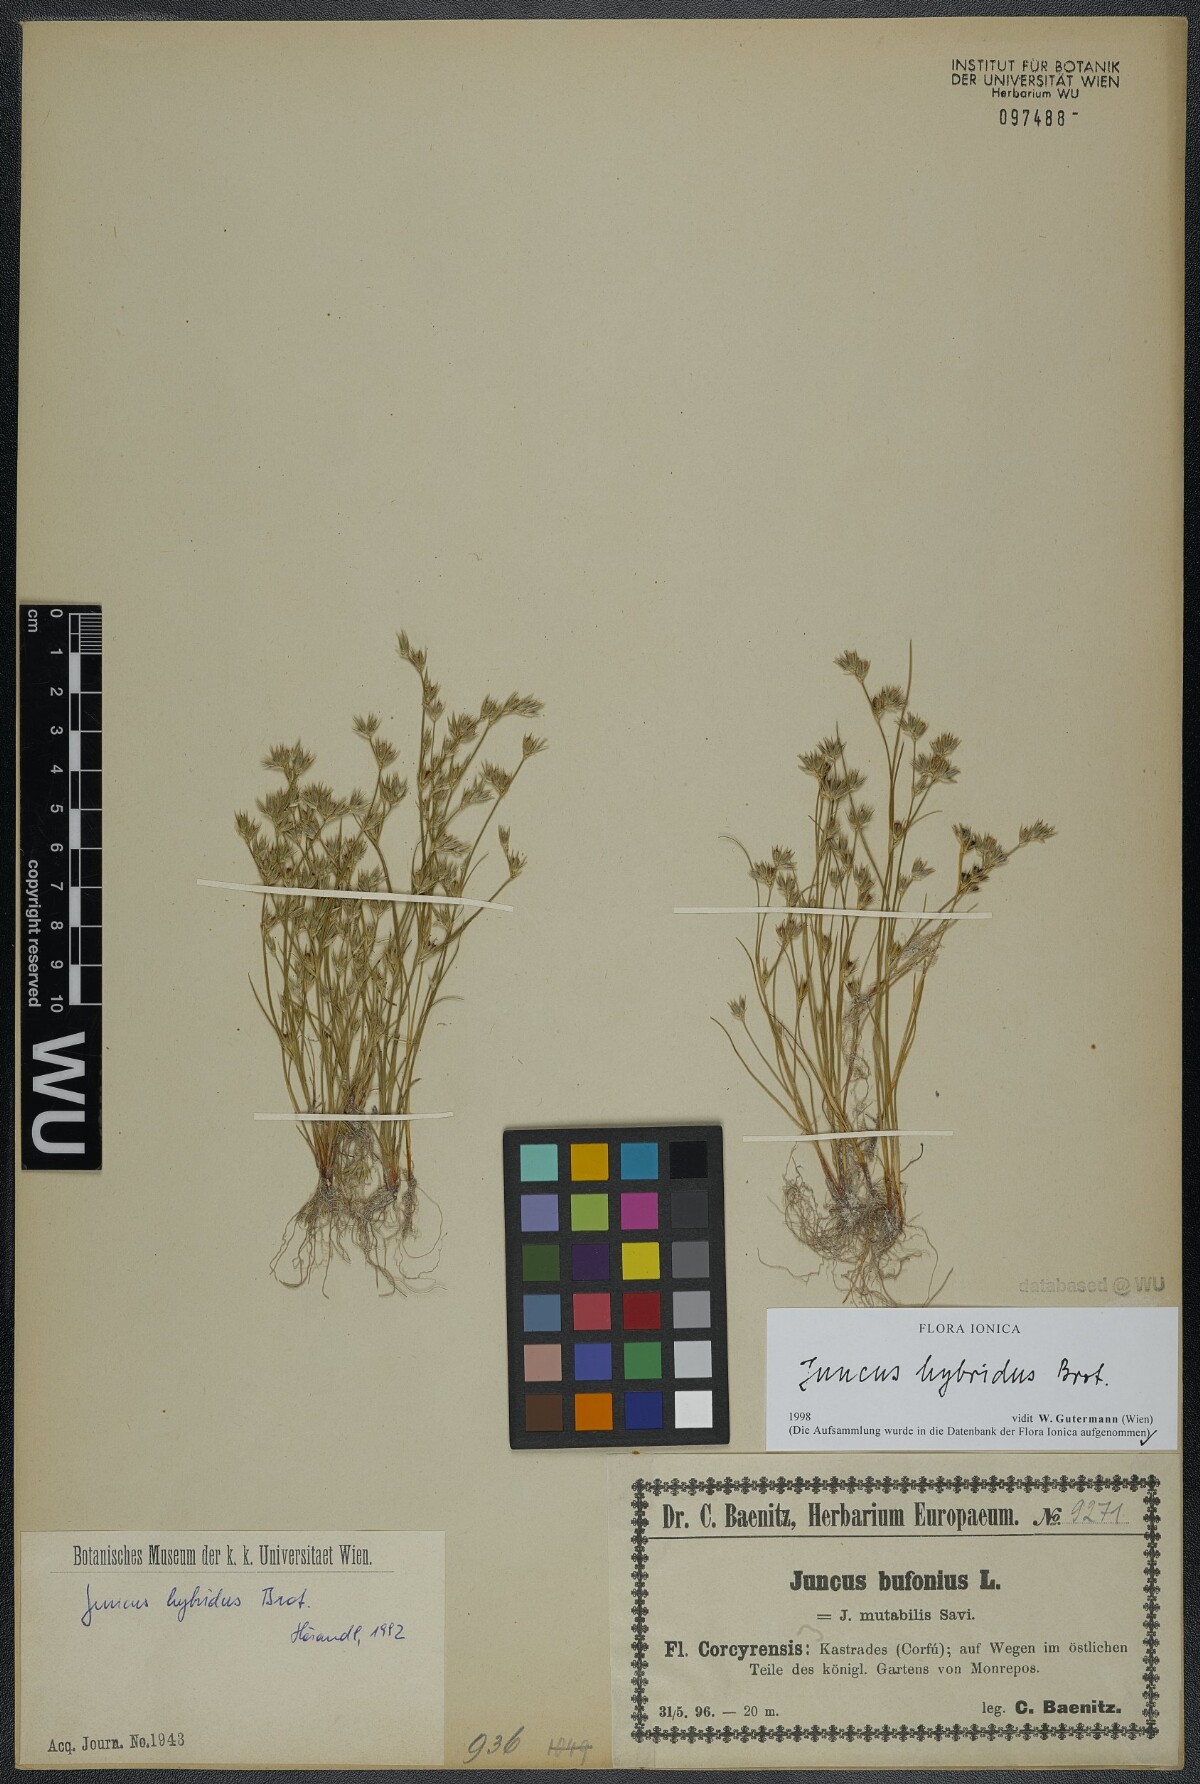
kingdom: Plantae
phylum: Tracheophyta
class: Liliopsida
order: Poales
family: Juncaceae
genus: Juncus
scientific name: Juncus hybridus
